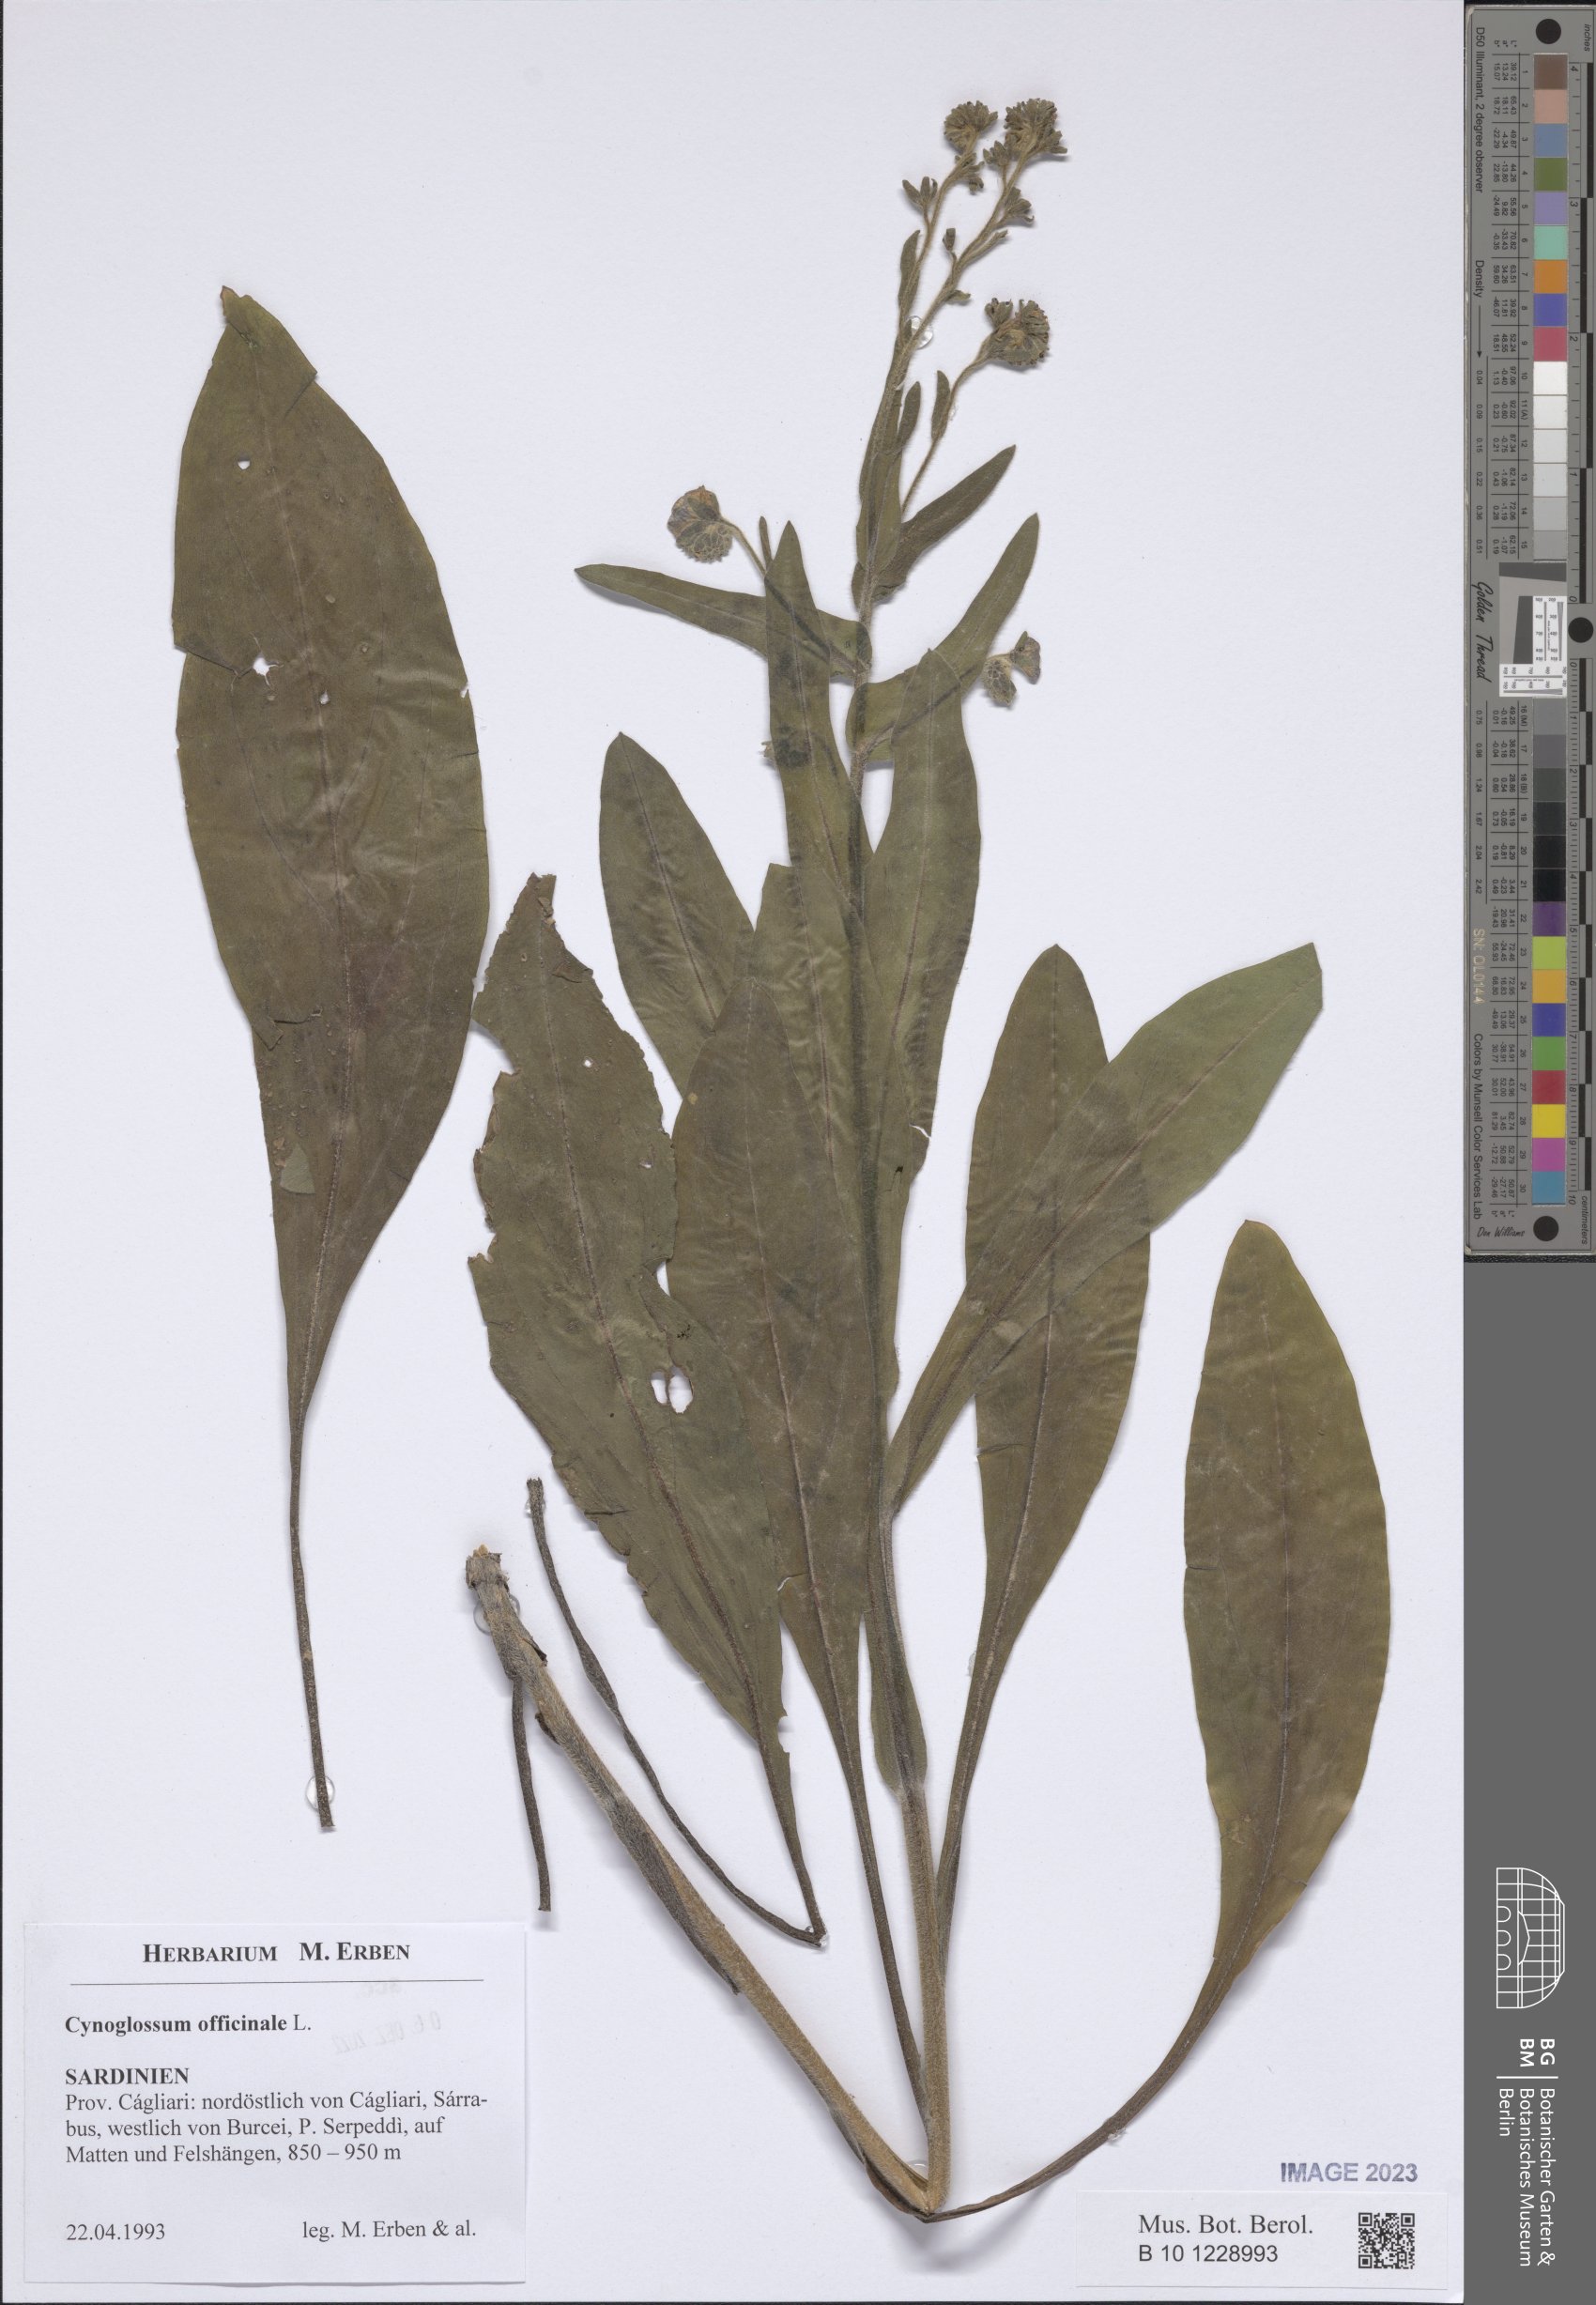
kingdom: Plantae
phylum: Tracheophyta
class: Magnoliopsida
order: Boraginales
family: Boraginaceae
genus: Cynoglossum
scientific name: Cynoglossum officinale
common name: Hound's-tongue
